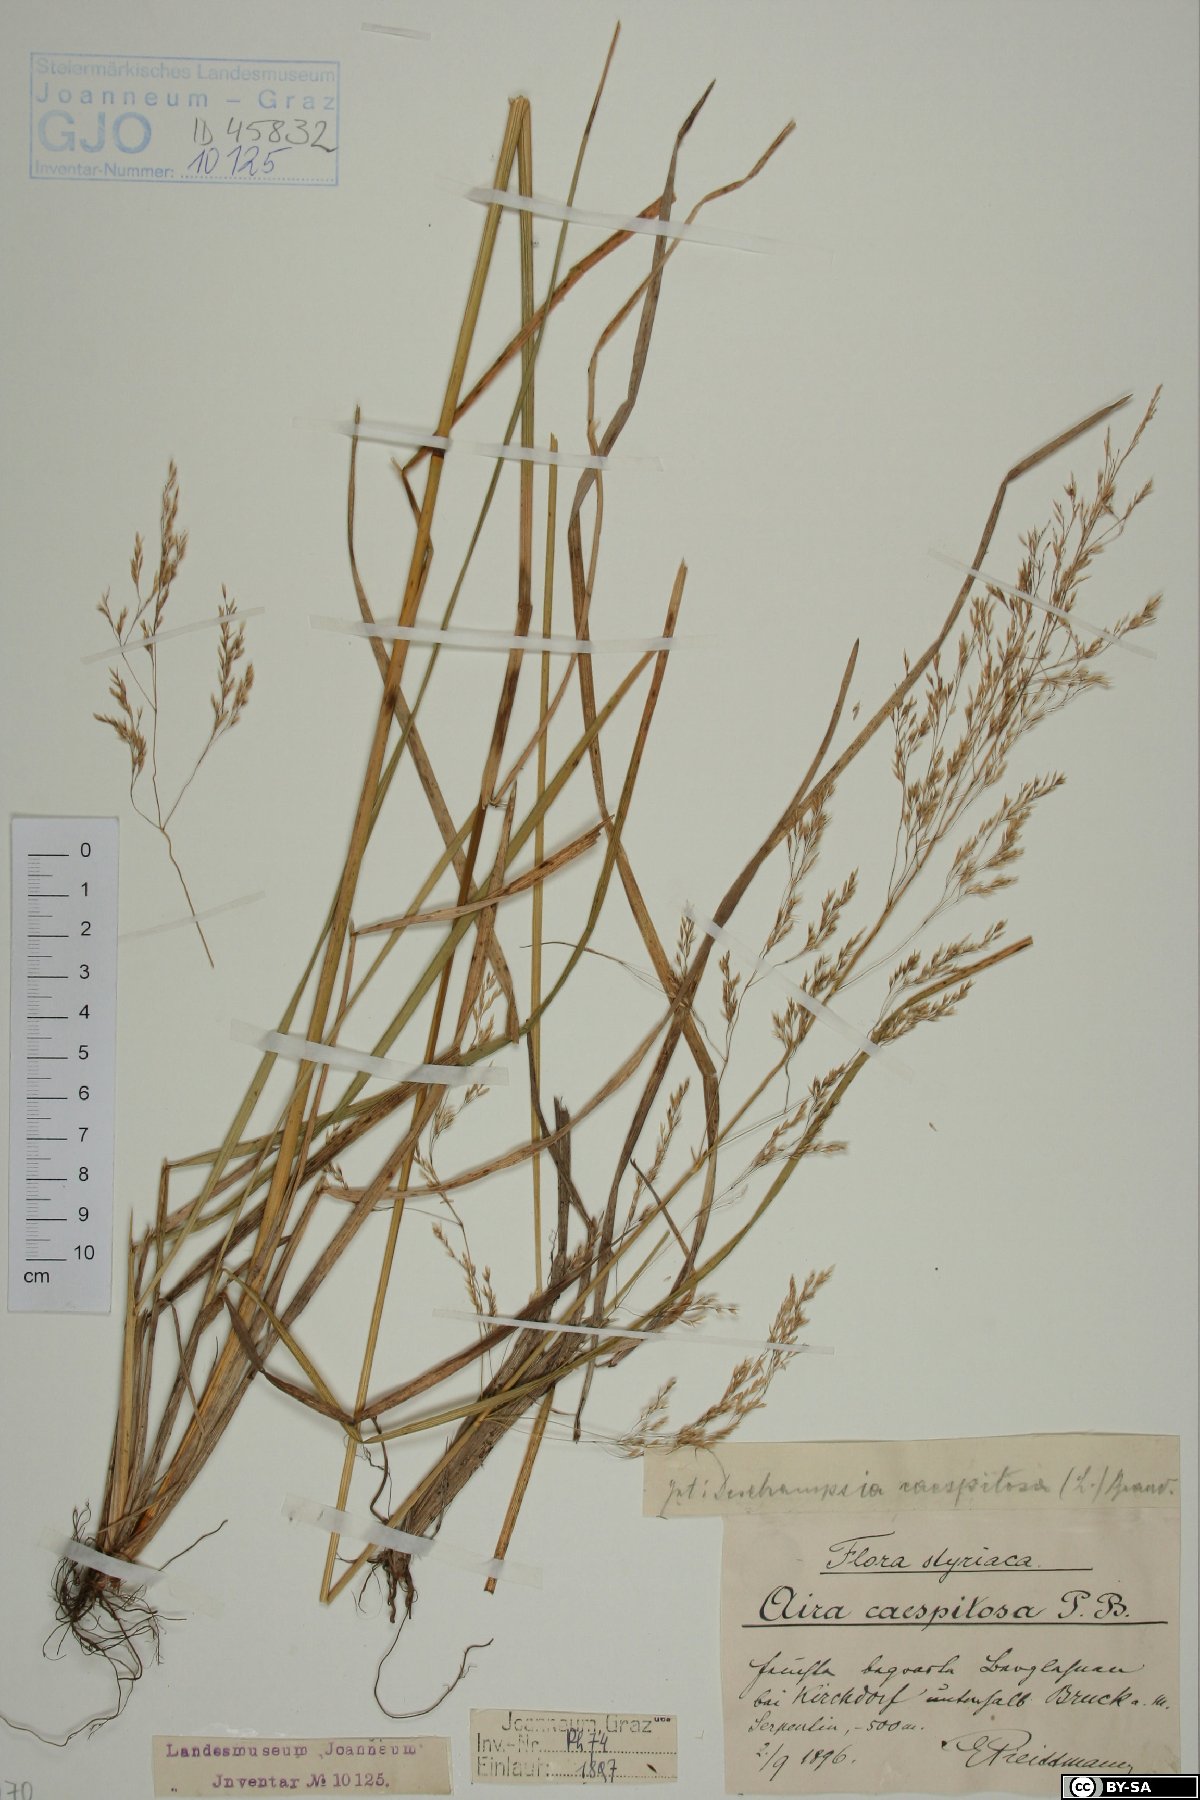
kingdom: Plantae
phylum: Tracheophyta
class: Liliopsida
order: Poales
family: Poaceae
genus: Deschampsia
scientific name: Deschampsia cespitosa
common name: Tufted hair-grass
